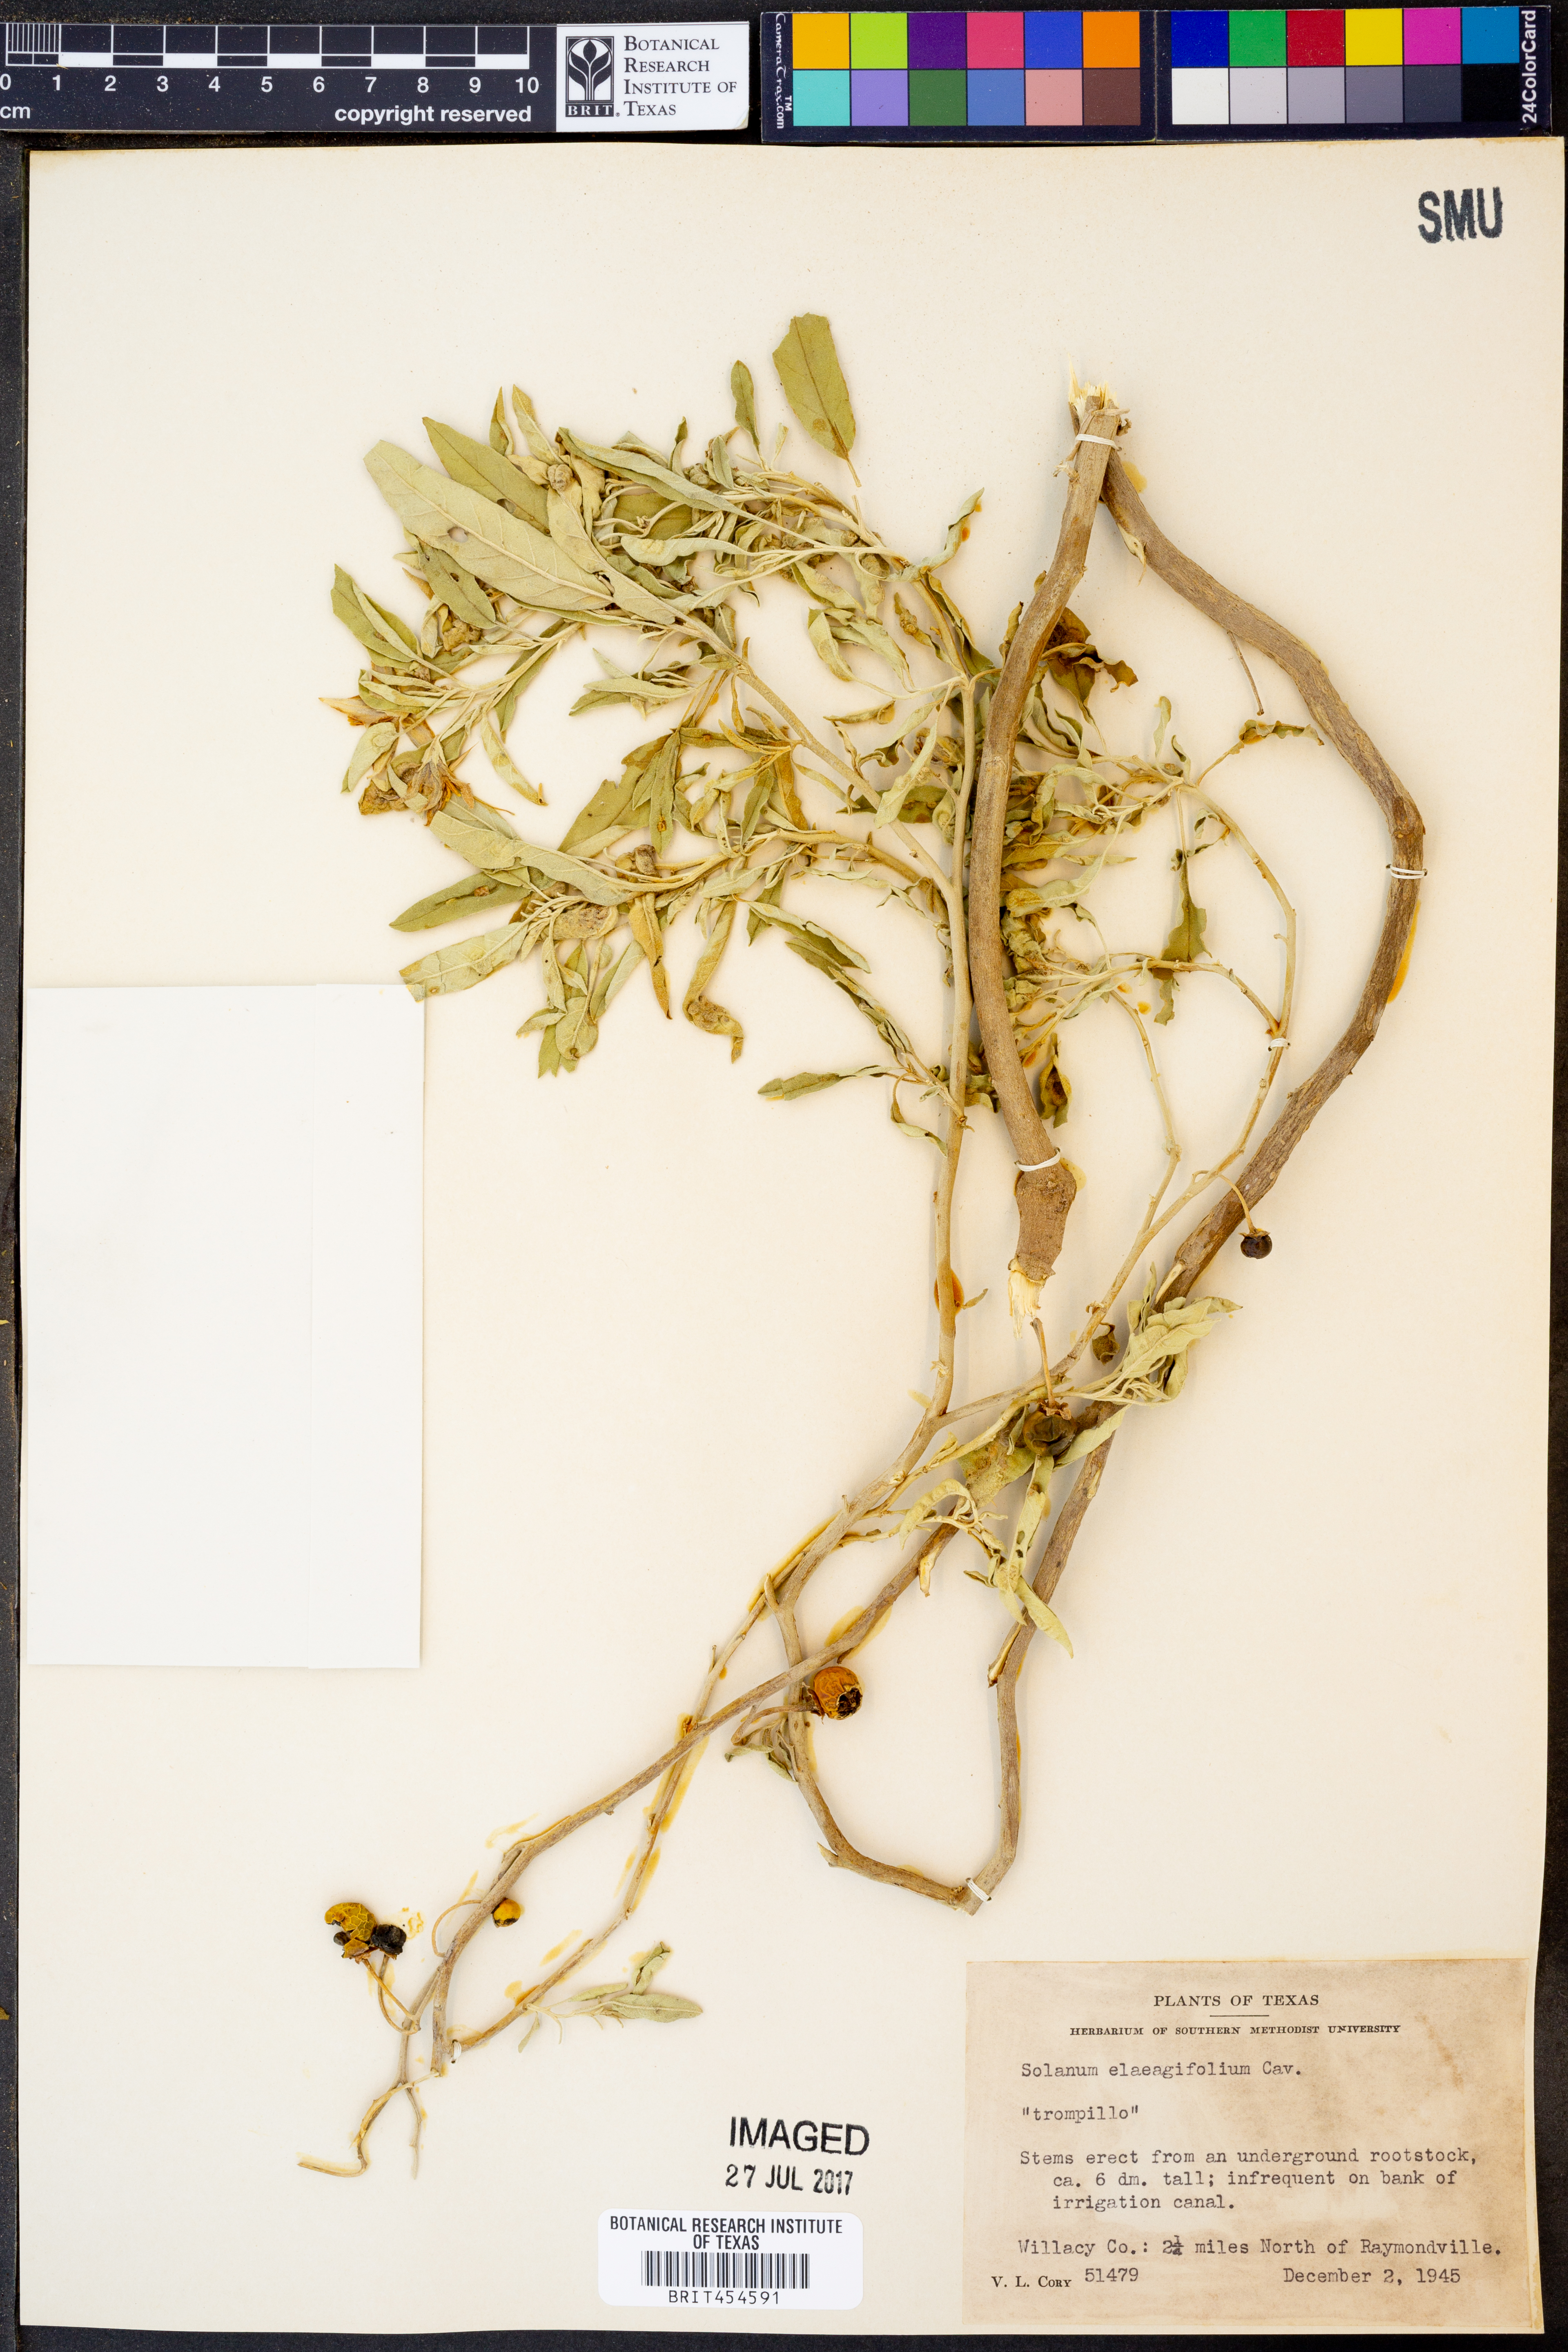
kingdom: Plantae
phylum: Tracheophyta
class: Magnoliopsida
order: Solanales
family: Solanaceae
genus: Solanum
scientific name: Solanum elaeagnifolium
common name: Silverleaf nightshade
